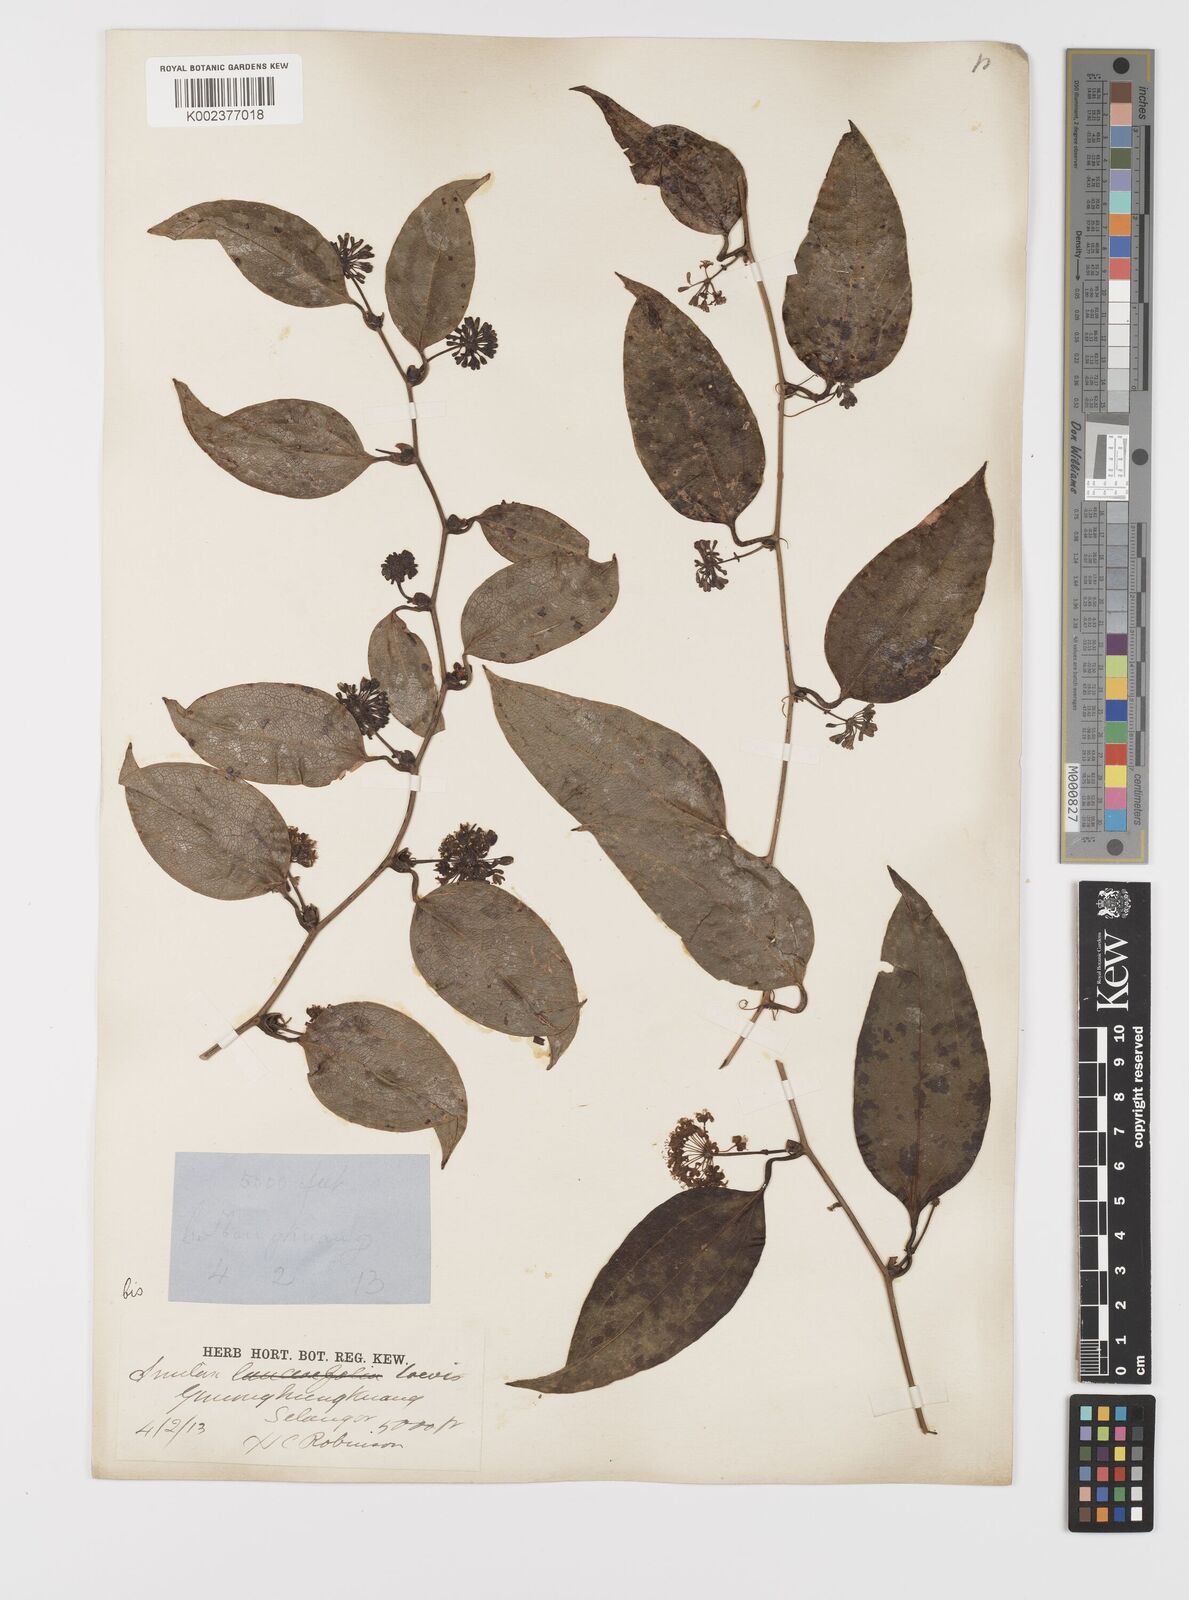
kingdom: Plantae
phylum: Tracheophyta
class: Liliopsida
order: Liliales
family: Smilacaceae
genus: Smilax
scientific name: Smilax laevis
